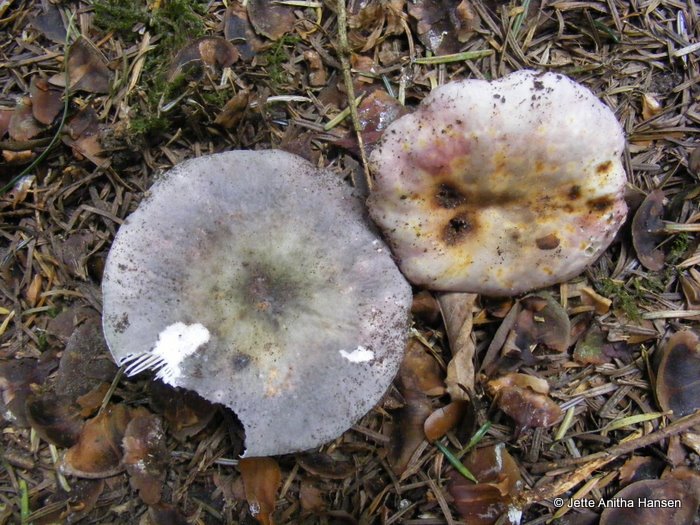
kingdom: Fungi
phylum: Basidiomycota
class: Agaricomycetes
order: Russulales
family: Russulaceae
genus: Russula
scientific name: Russula cyanoxantha
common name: broget skørhat
